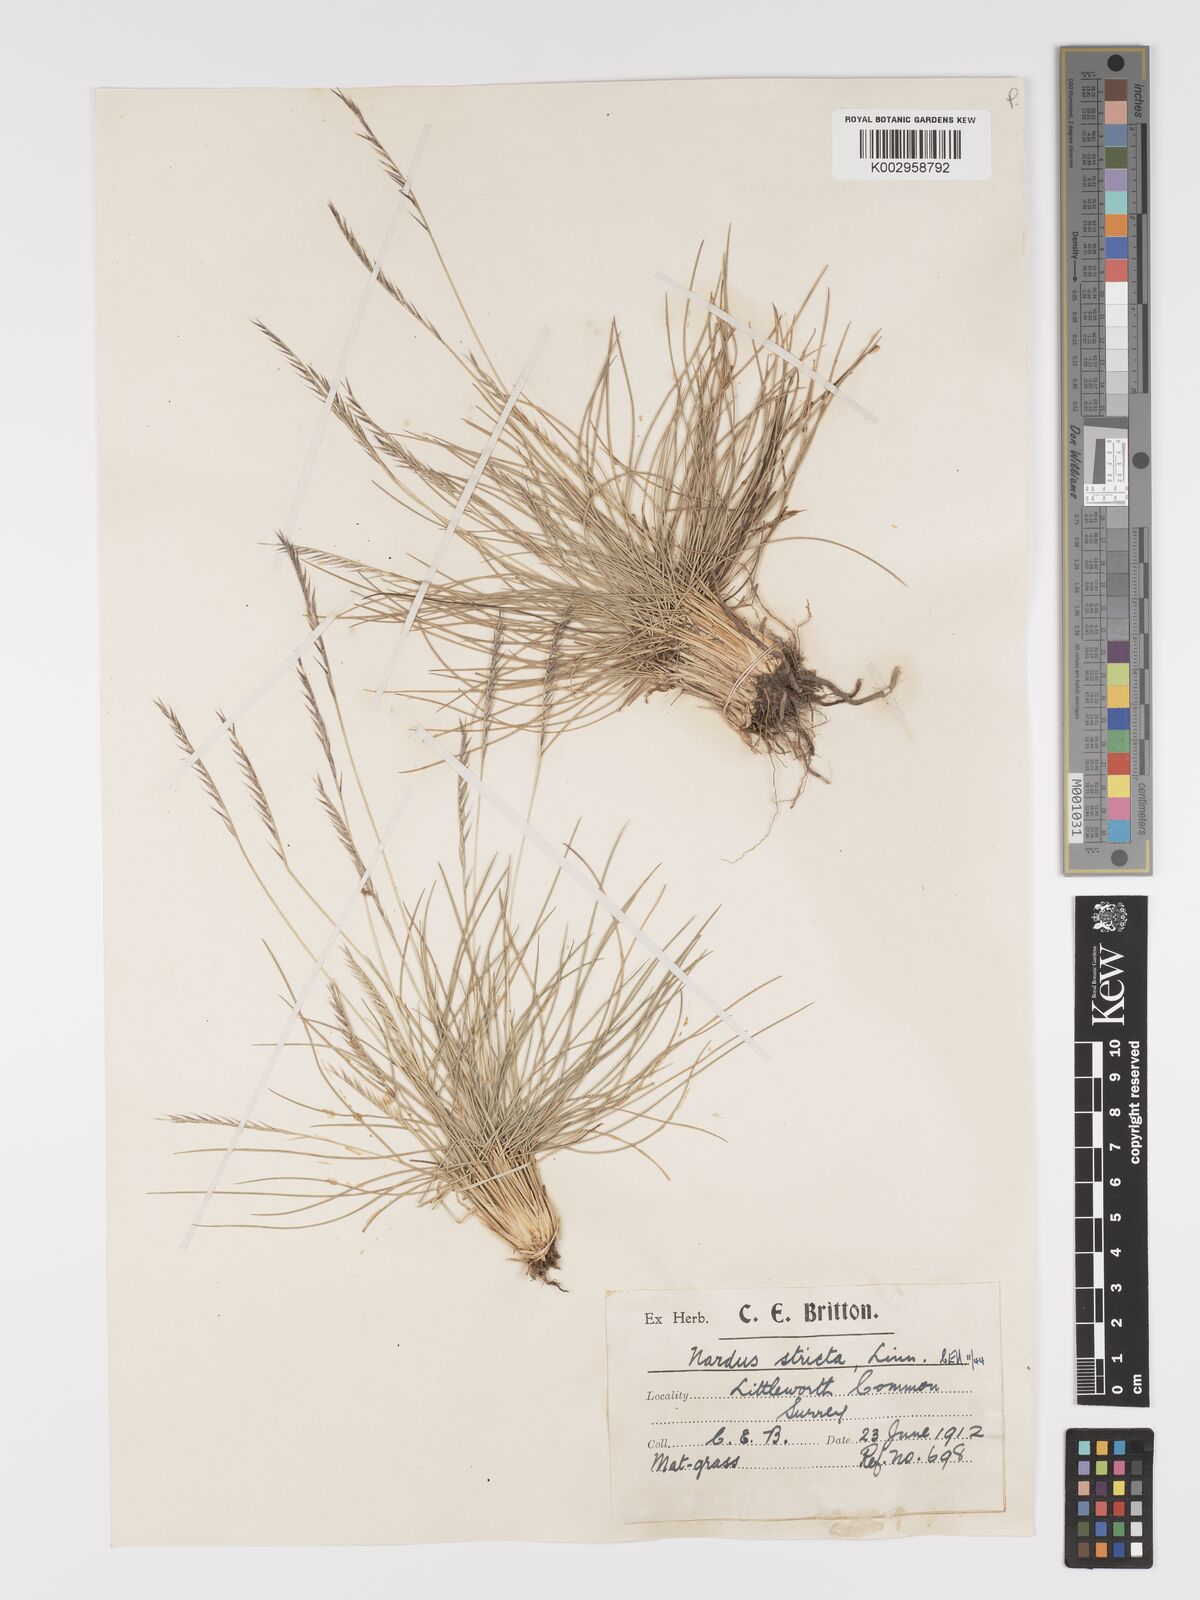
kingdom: Plantae
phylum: Tracheophyta
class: Liliopsida
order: Poales
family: Poaceae
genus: Nardus
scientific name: Nardus stricta
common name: Mat-grass
